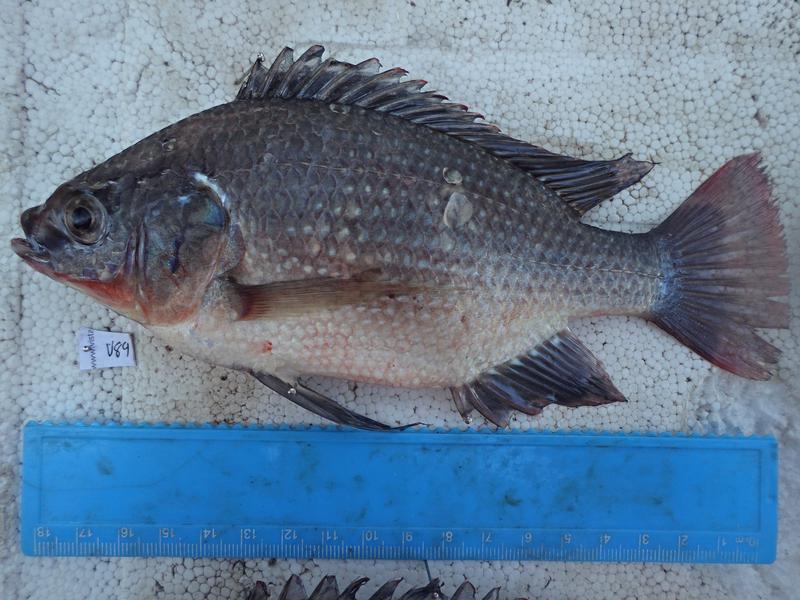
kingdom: Animalia
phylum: Chordata
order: Perciformes
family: Cichlidae
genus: Oreochromis
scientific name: Oreochromis esculentus
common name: Carp
